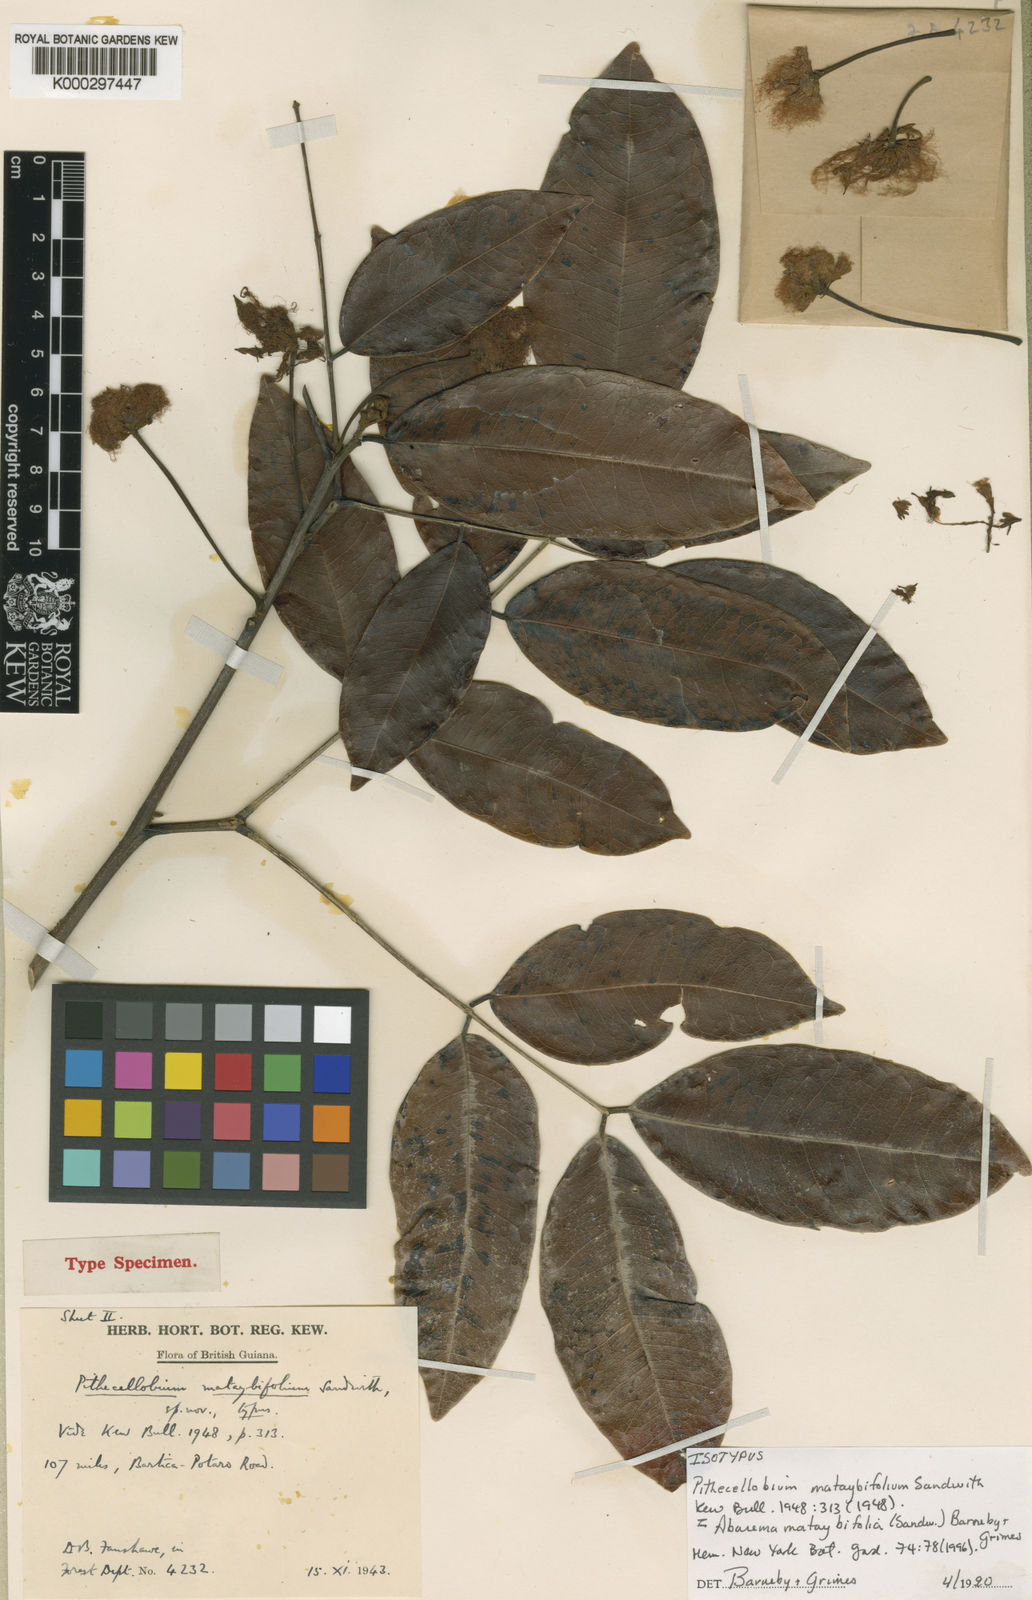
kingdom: Plantae
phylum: Tracheophyta
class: Magnoliopsida
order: Fabales
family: Fabaceae
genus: Jupunba
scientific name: Jupunba mataybifolia
